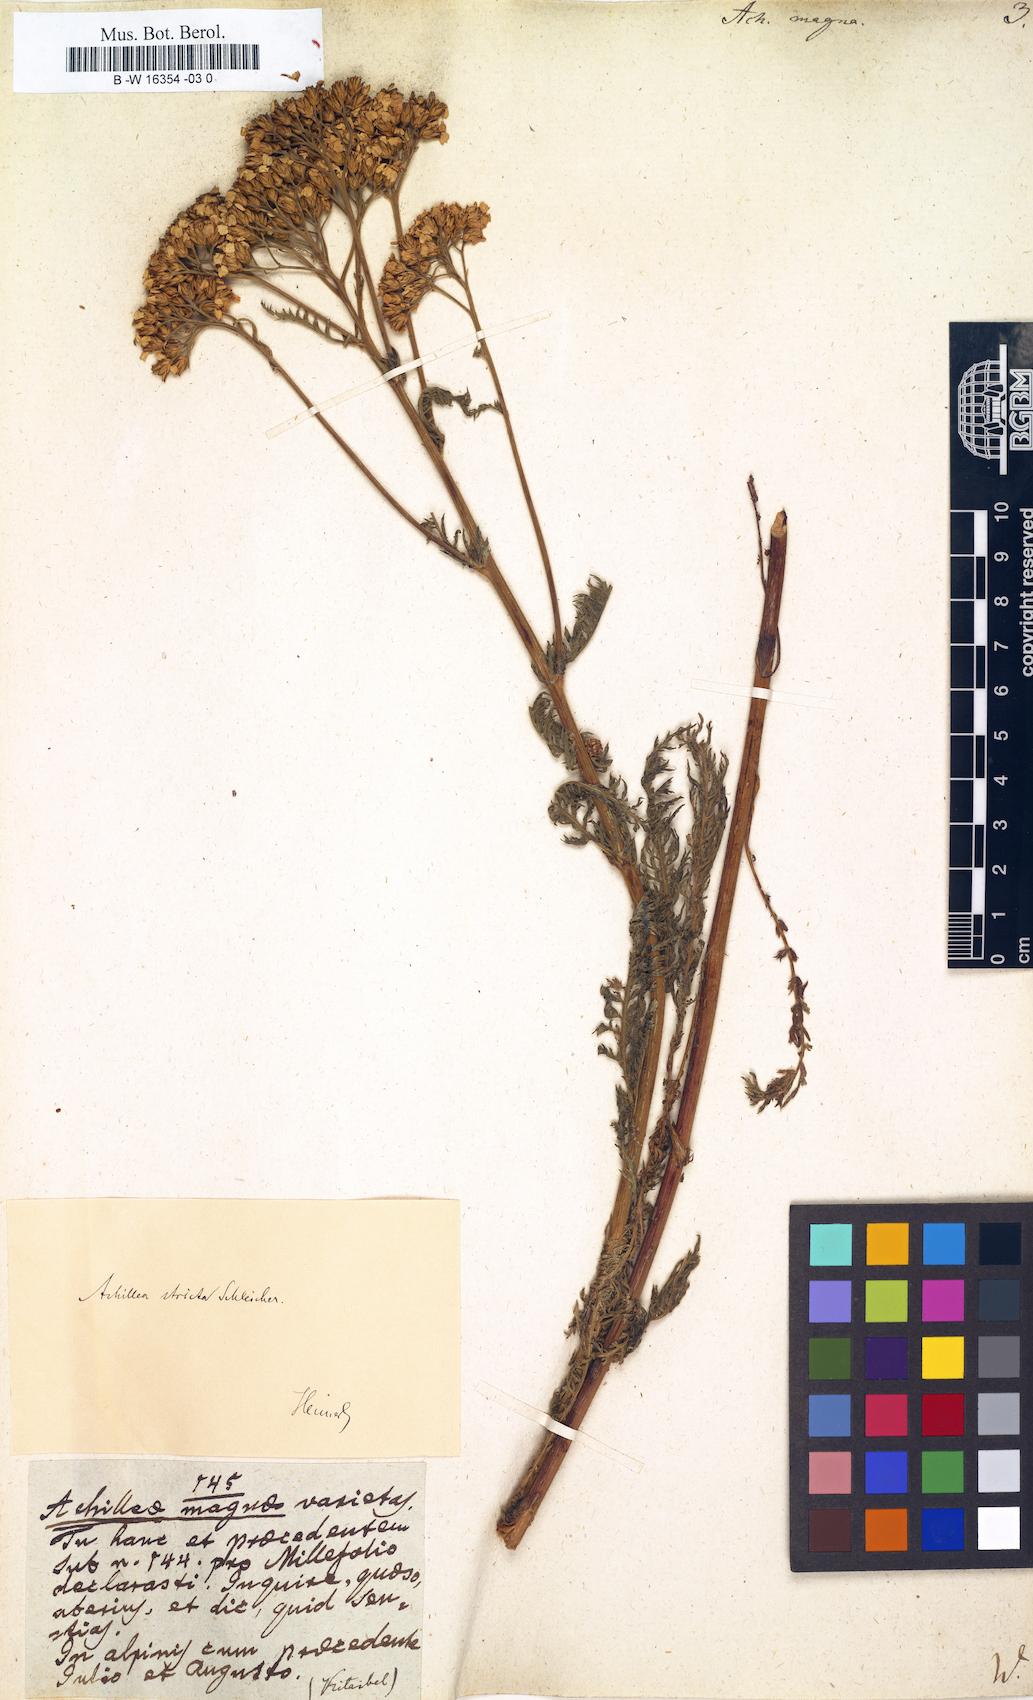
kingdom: Plantae
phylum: Tracheophyta
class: Magnoliopsida
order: Asterales
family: Asteraceae
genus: Achillea
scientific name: Achillea millefolium
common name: Yarrow
